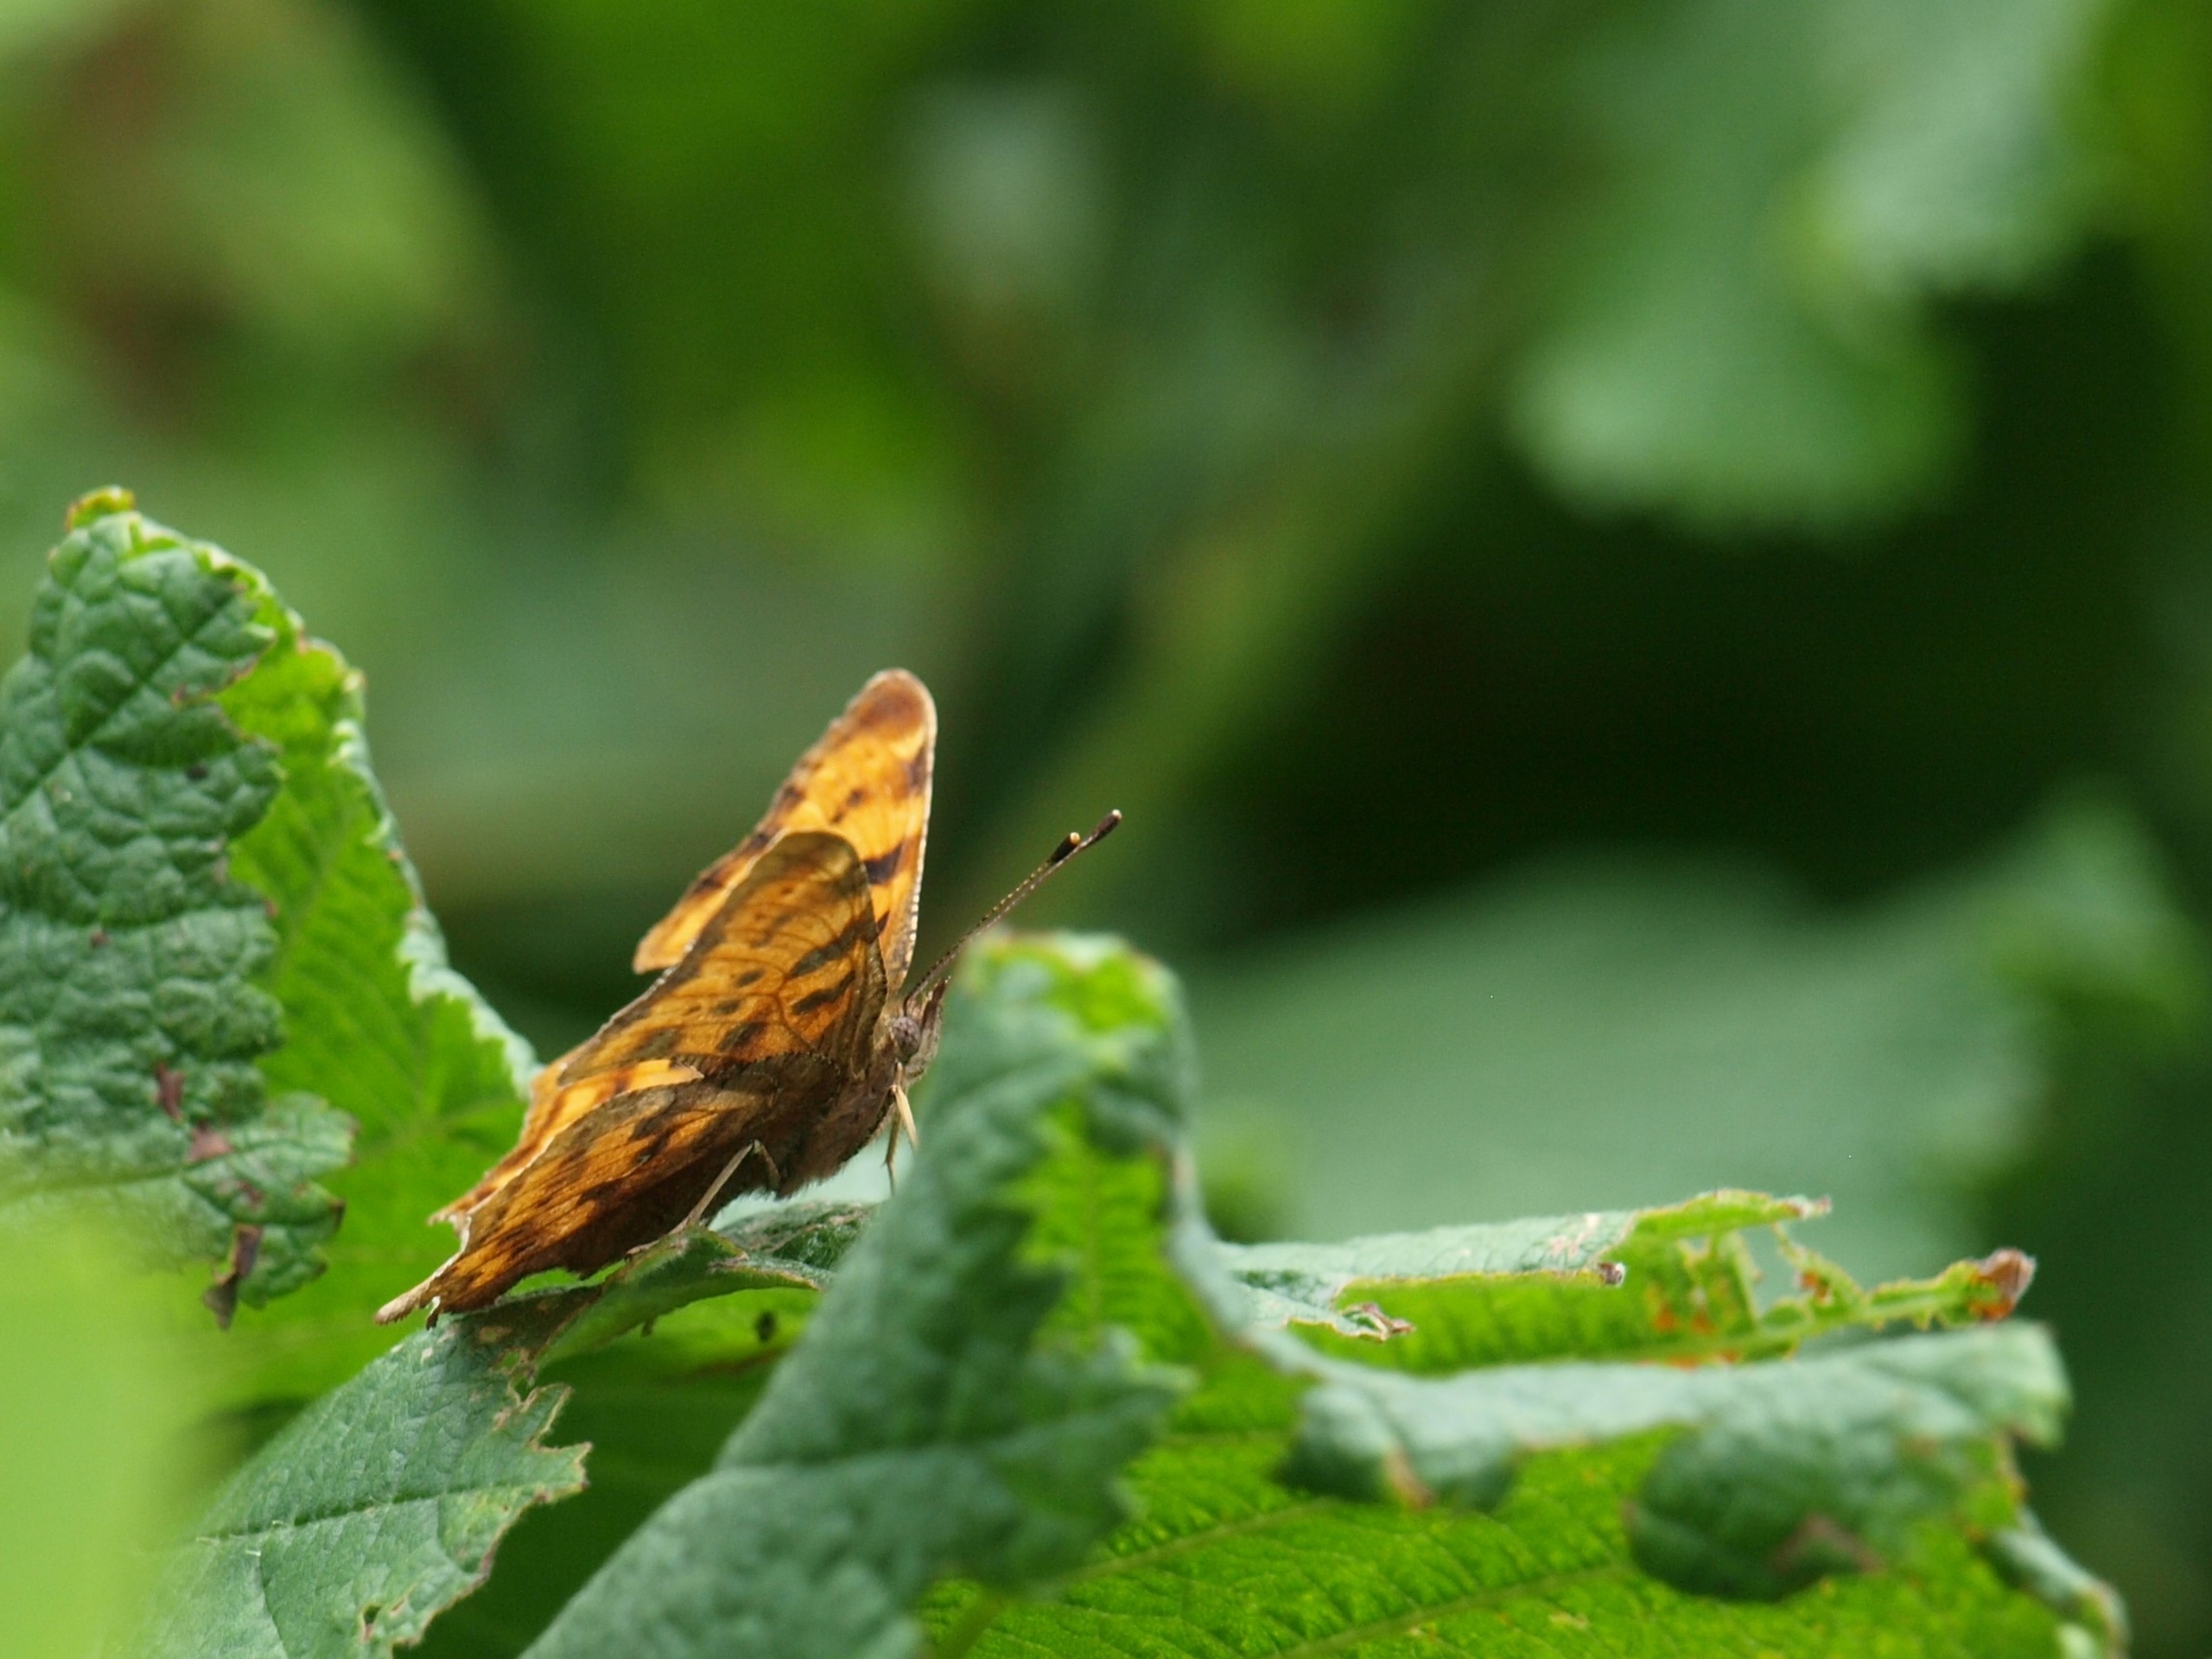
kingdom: Animalia
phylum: Arthropoda
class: Insecta
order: Lepidoptera
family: Nymphalidae
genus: Polygonia
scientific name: Polygonia c-album
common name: Det hvide C
